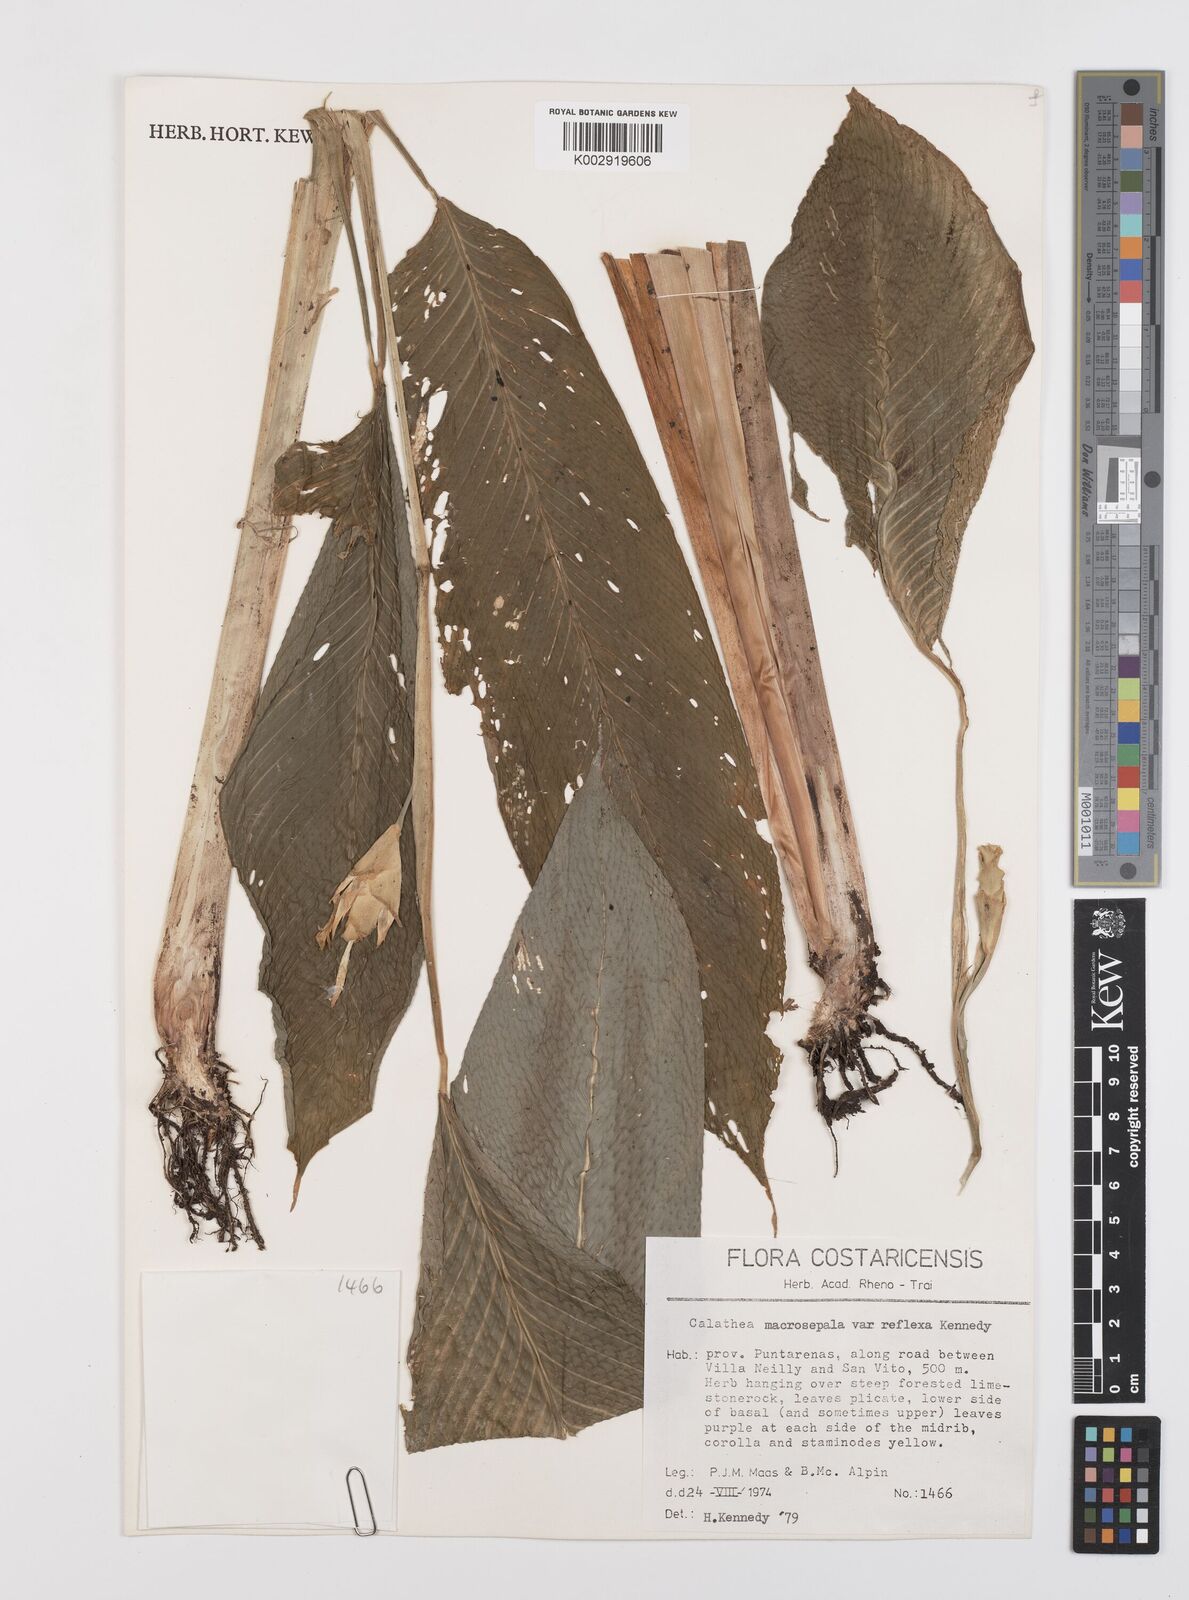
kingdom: Plantae
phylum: Tracheophyta
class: Liliopsida
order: Zingiberales
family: Marantaceae
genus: Goeppertia
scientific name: Goeppertia macrosepala
